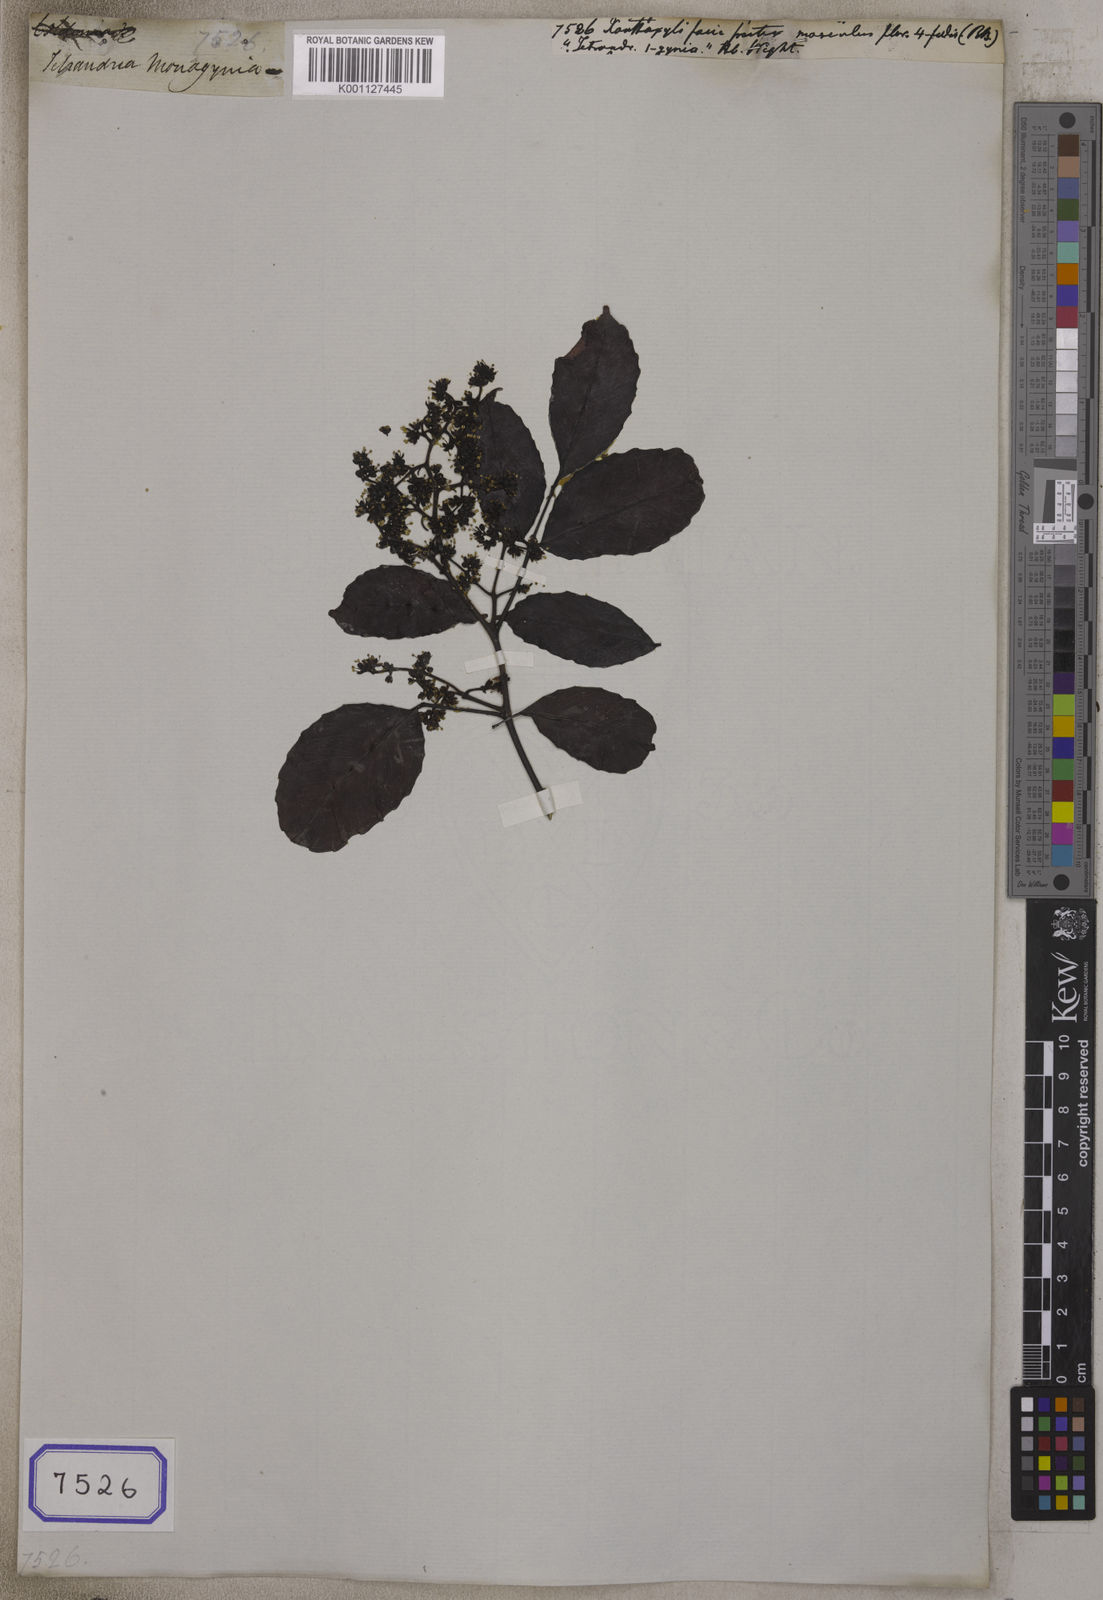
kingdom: Plantae
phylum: Tracheophyta
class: Magnoliopsida
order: Sapindales
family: Rutaceae
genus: Zanthoxylum
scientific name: Zanthoxylum
